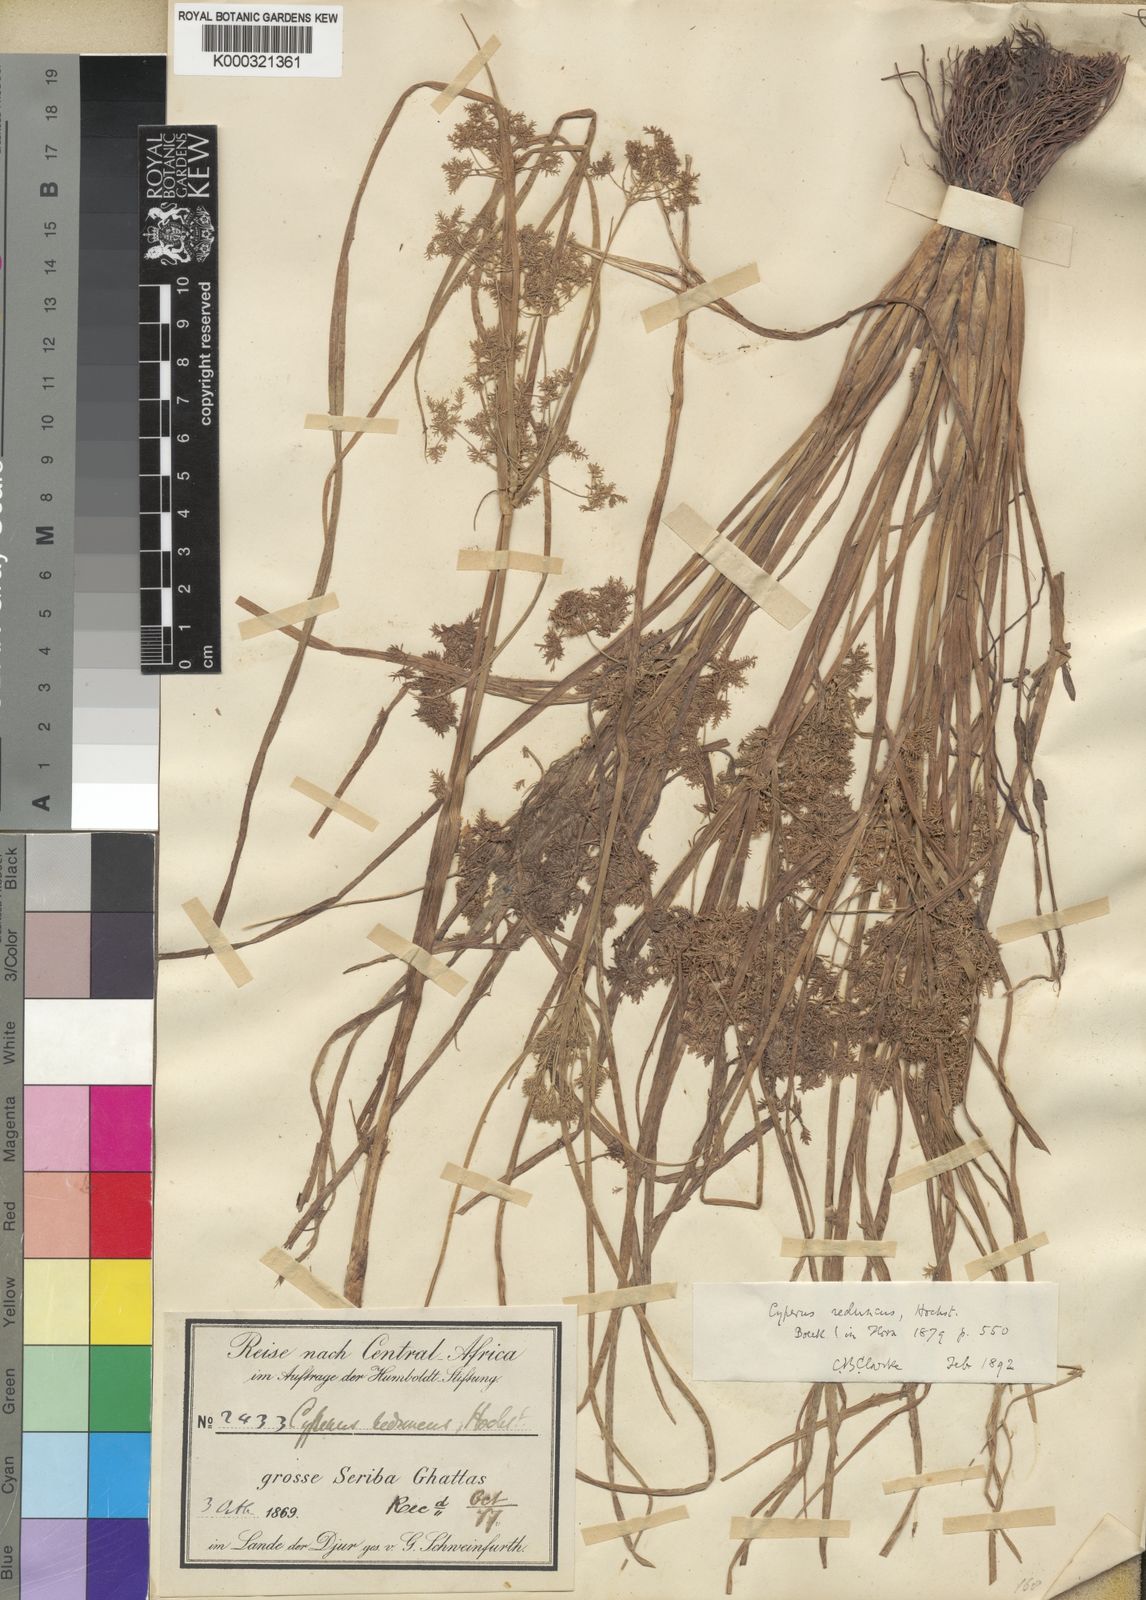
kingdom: Plantae
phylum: Tracheophyta
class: Liliopsida
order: Poales
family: Cyperaceae
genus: Cyperus
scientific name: Cyperus reduncus
